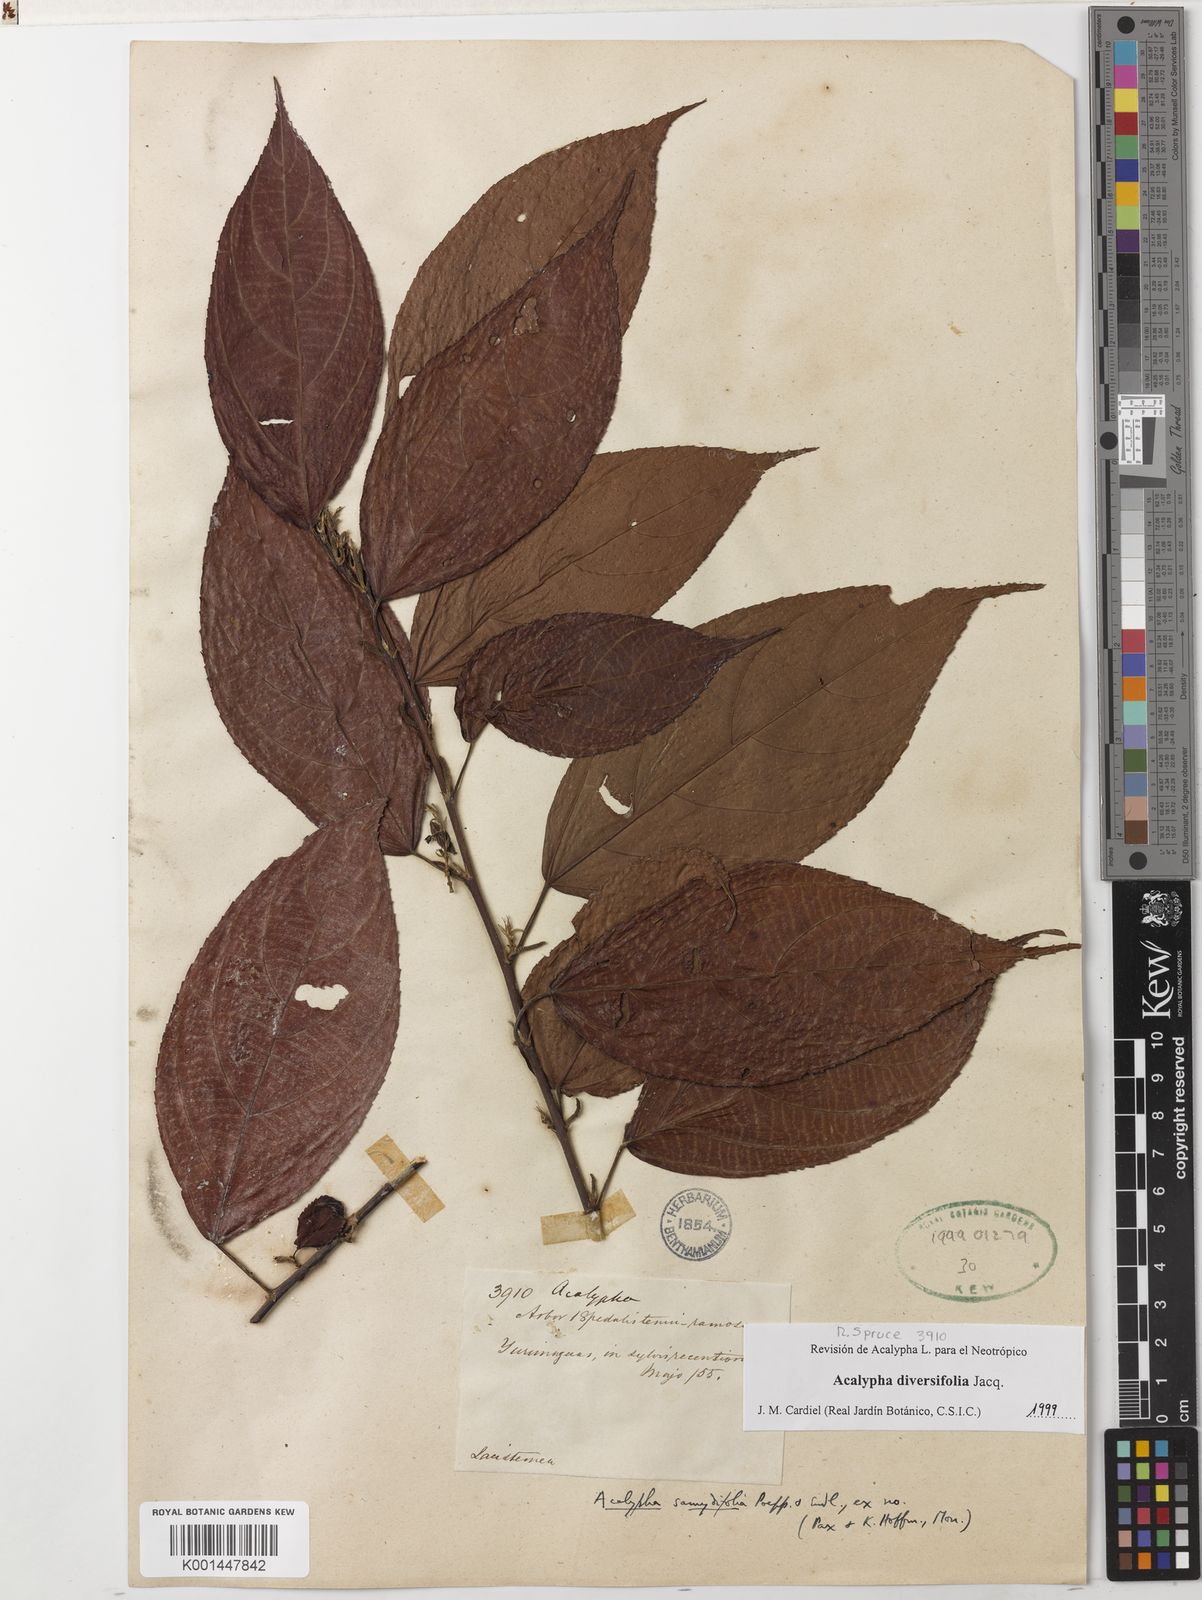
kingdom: Plantae
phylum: Tracheophyta
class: Magnoliopsida
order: Malpighiales
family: Euphorbiaceae
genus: Acalypha
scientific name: Acalypha diversifolia
